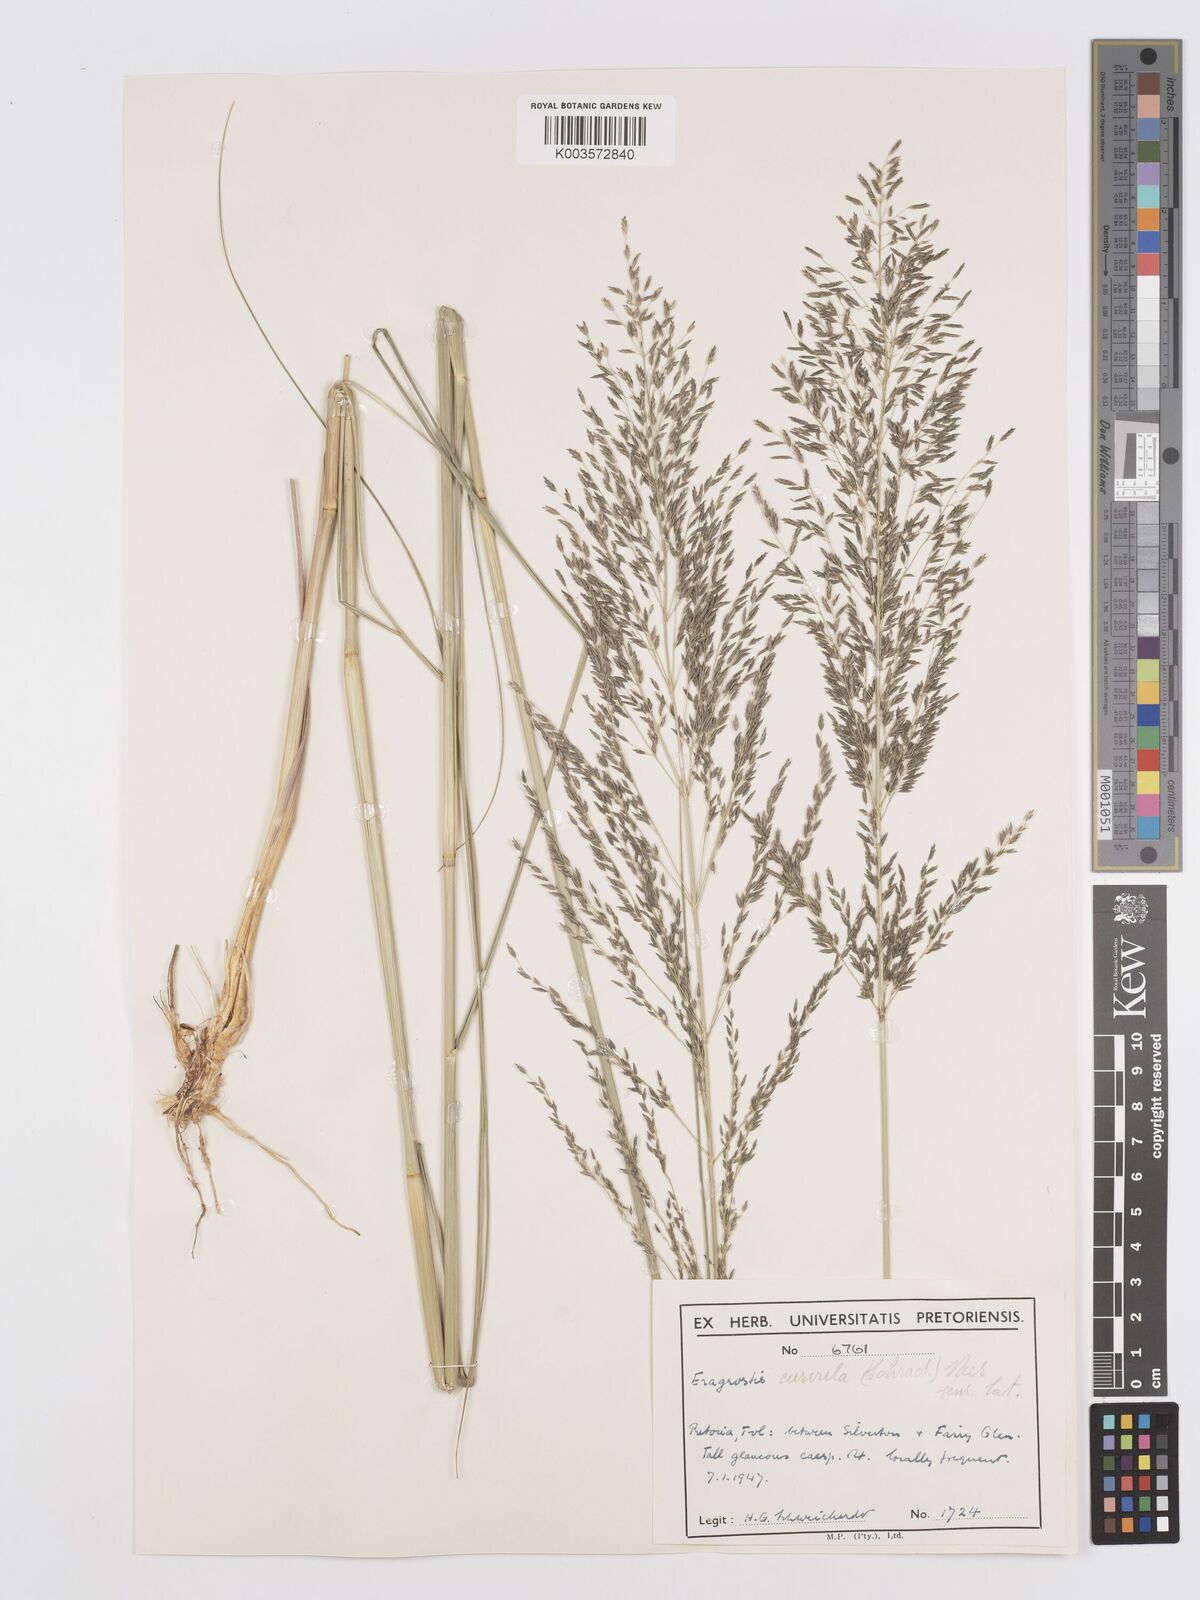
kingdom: Plantae
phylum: Tracheophyta
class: Liliopsida
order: Poales
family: Poaceae
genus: Eragrostis
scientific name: Eragrostis curvula
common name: African love-grass
